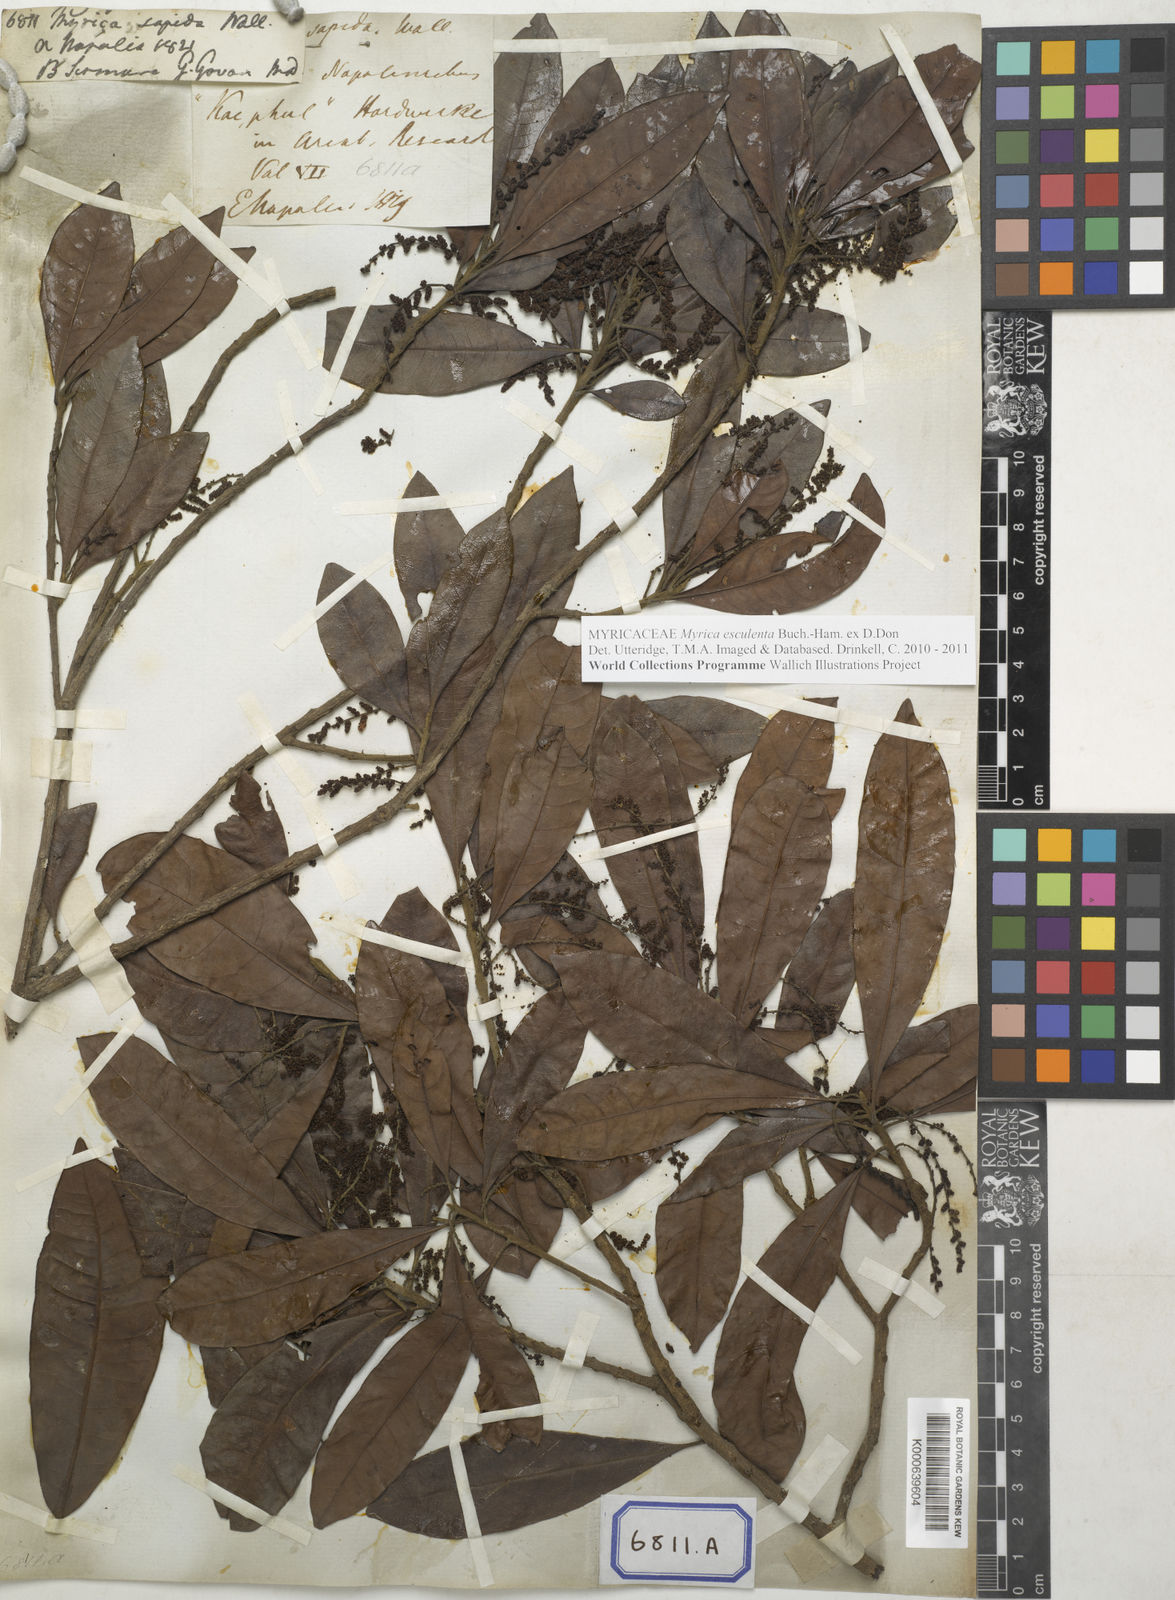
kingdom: Plantae
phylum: Tracheophyta
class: Magnoliopsida
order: Fagales
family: Myricaceae
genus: Morella
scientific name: Morella esculenta
